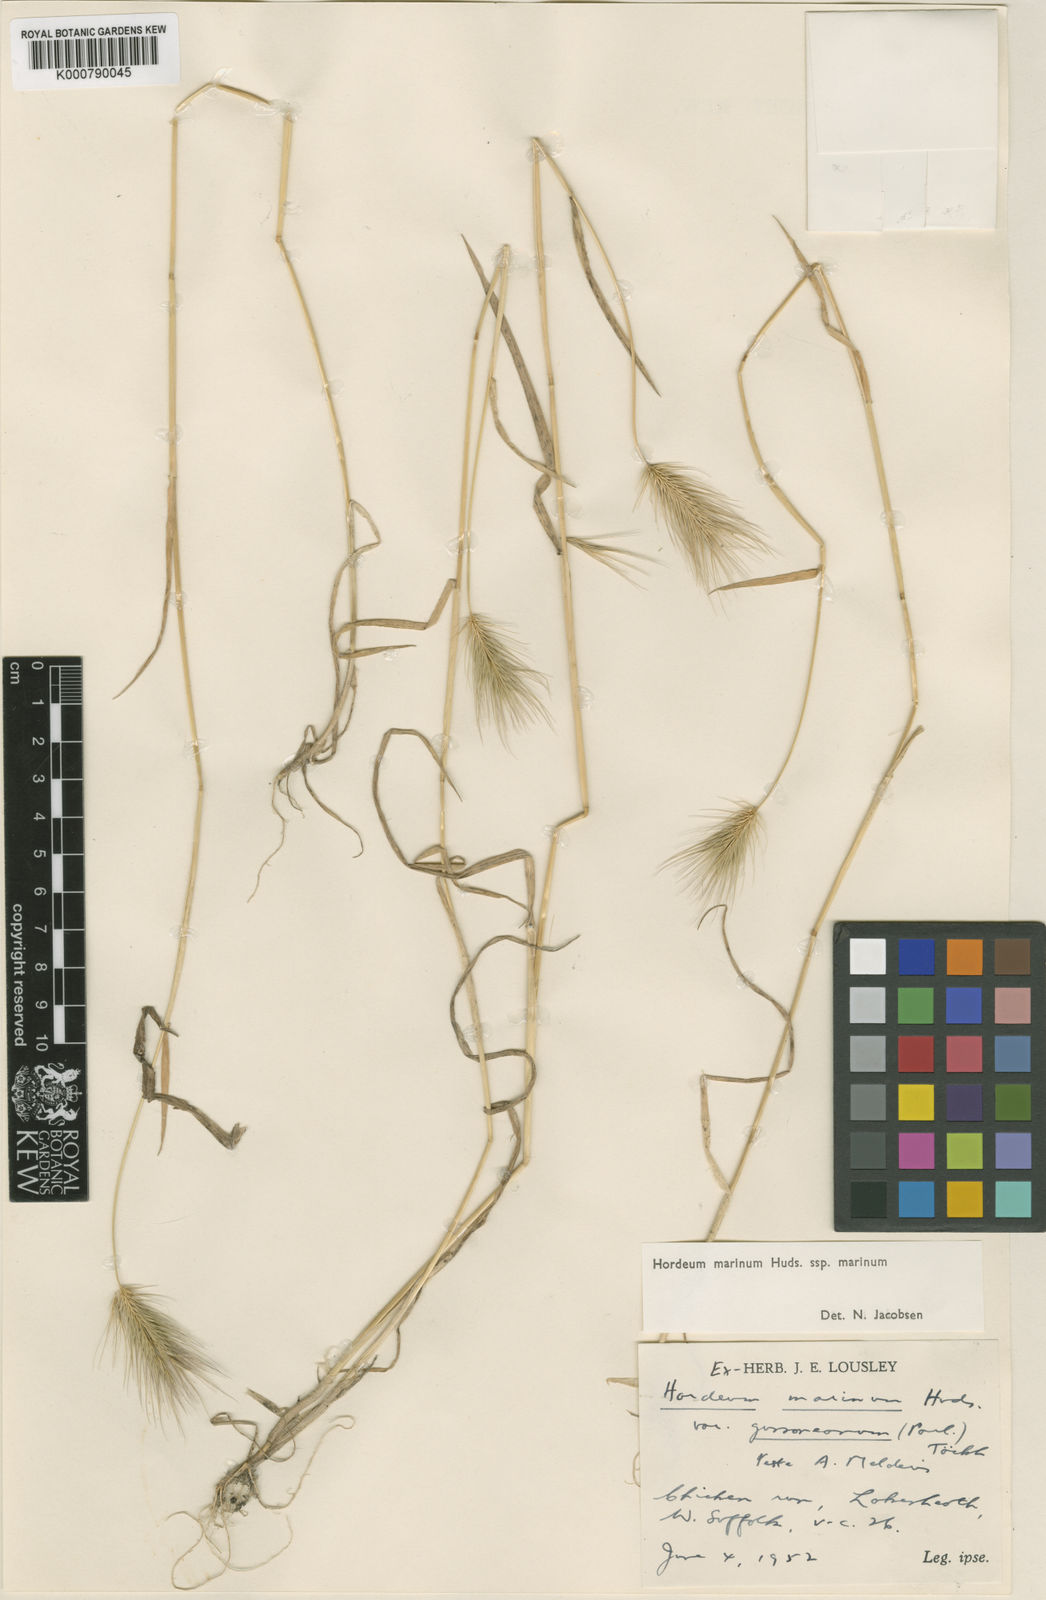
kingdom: Plantae
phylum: Tracheophyta
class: Liliopsida
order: Poales
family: Poaceae
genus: Hordeum
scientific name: Hordeum marinum
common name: Sea barley
